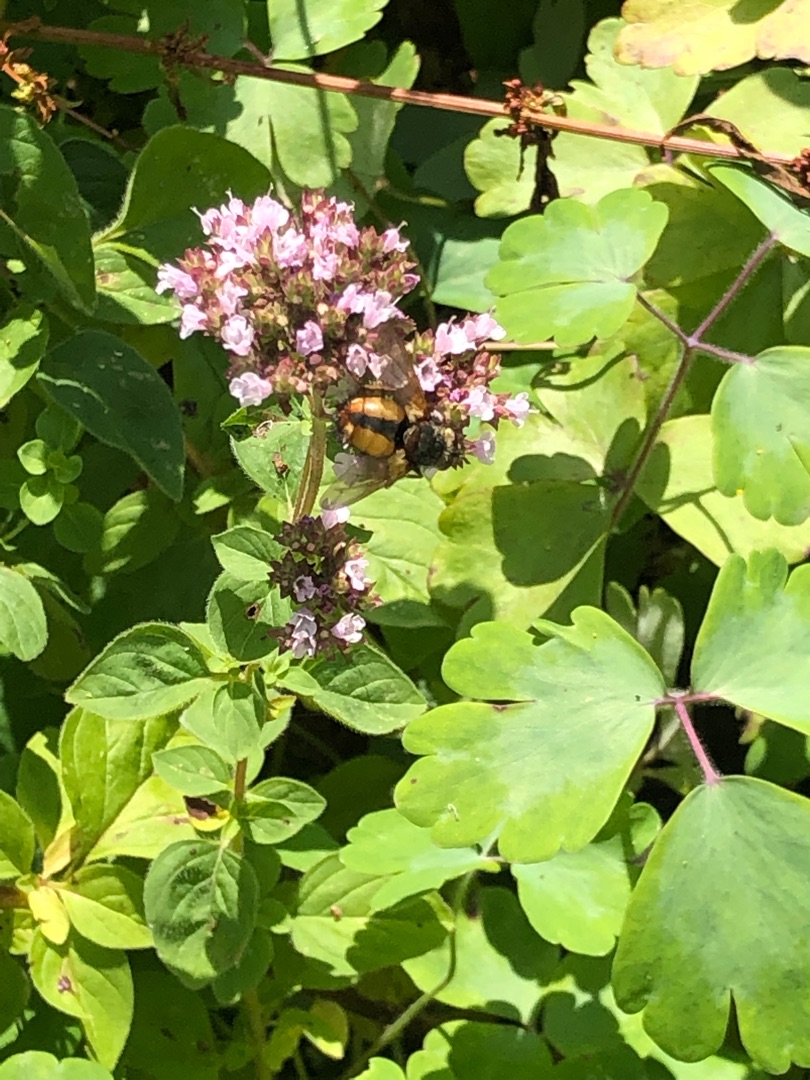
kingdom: Animalia
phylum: Arthropoda
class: Insecta
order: Diptera
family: Tachinidae
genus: Tachina
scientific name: Tachina fera
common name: Mellemfluen oskar
